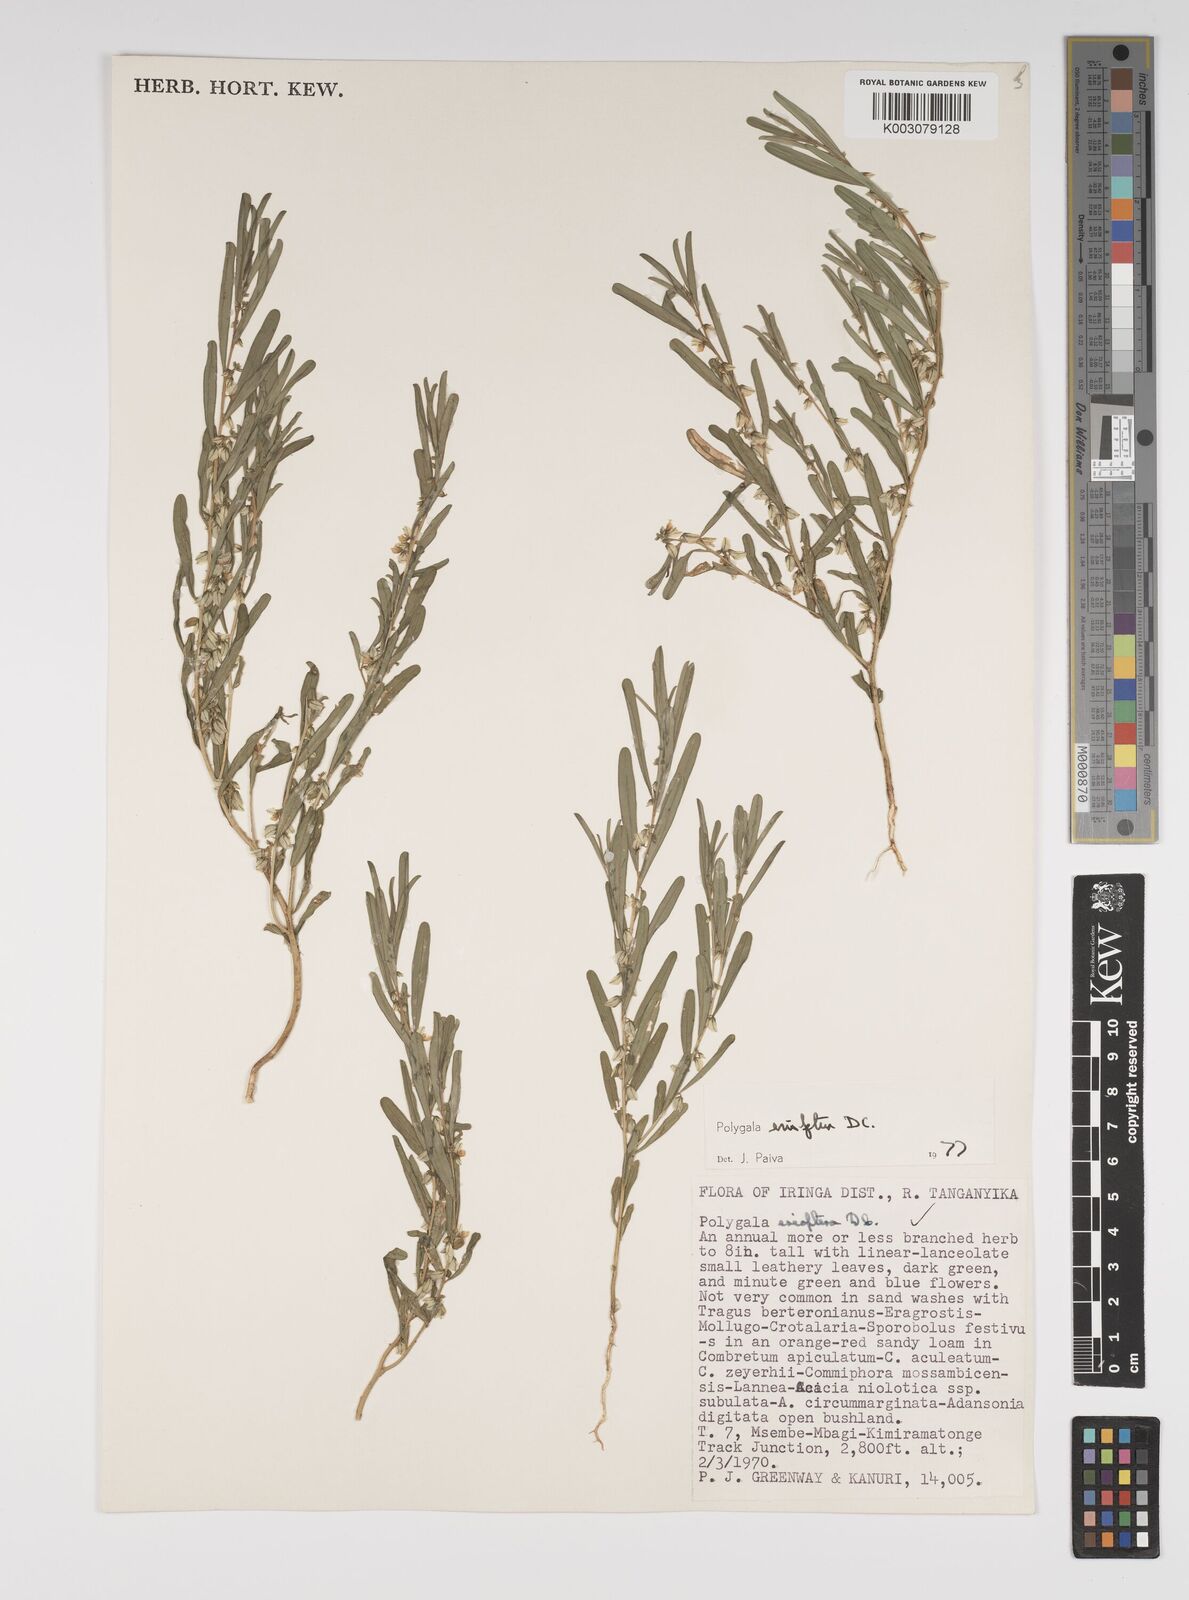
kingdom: Plantae
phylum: Tracheophyta
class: Magnoliopsida
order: Fabales
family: Polygalaceae
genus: Polygala
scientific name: Polygala erioptera
